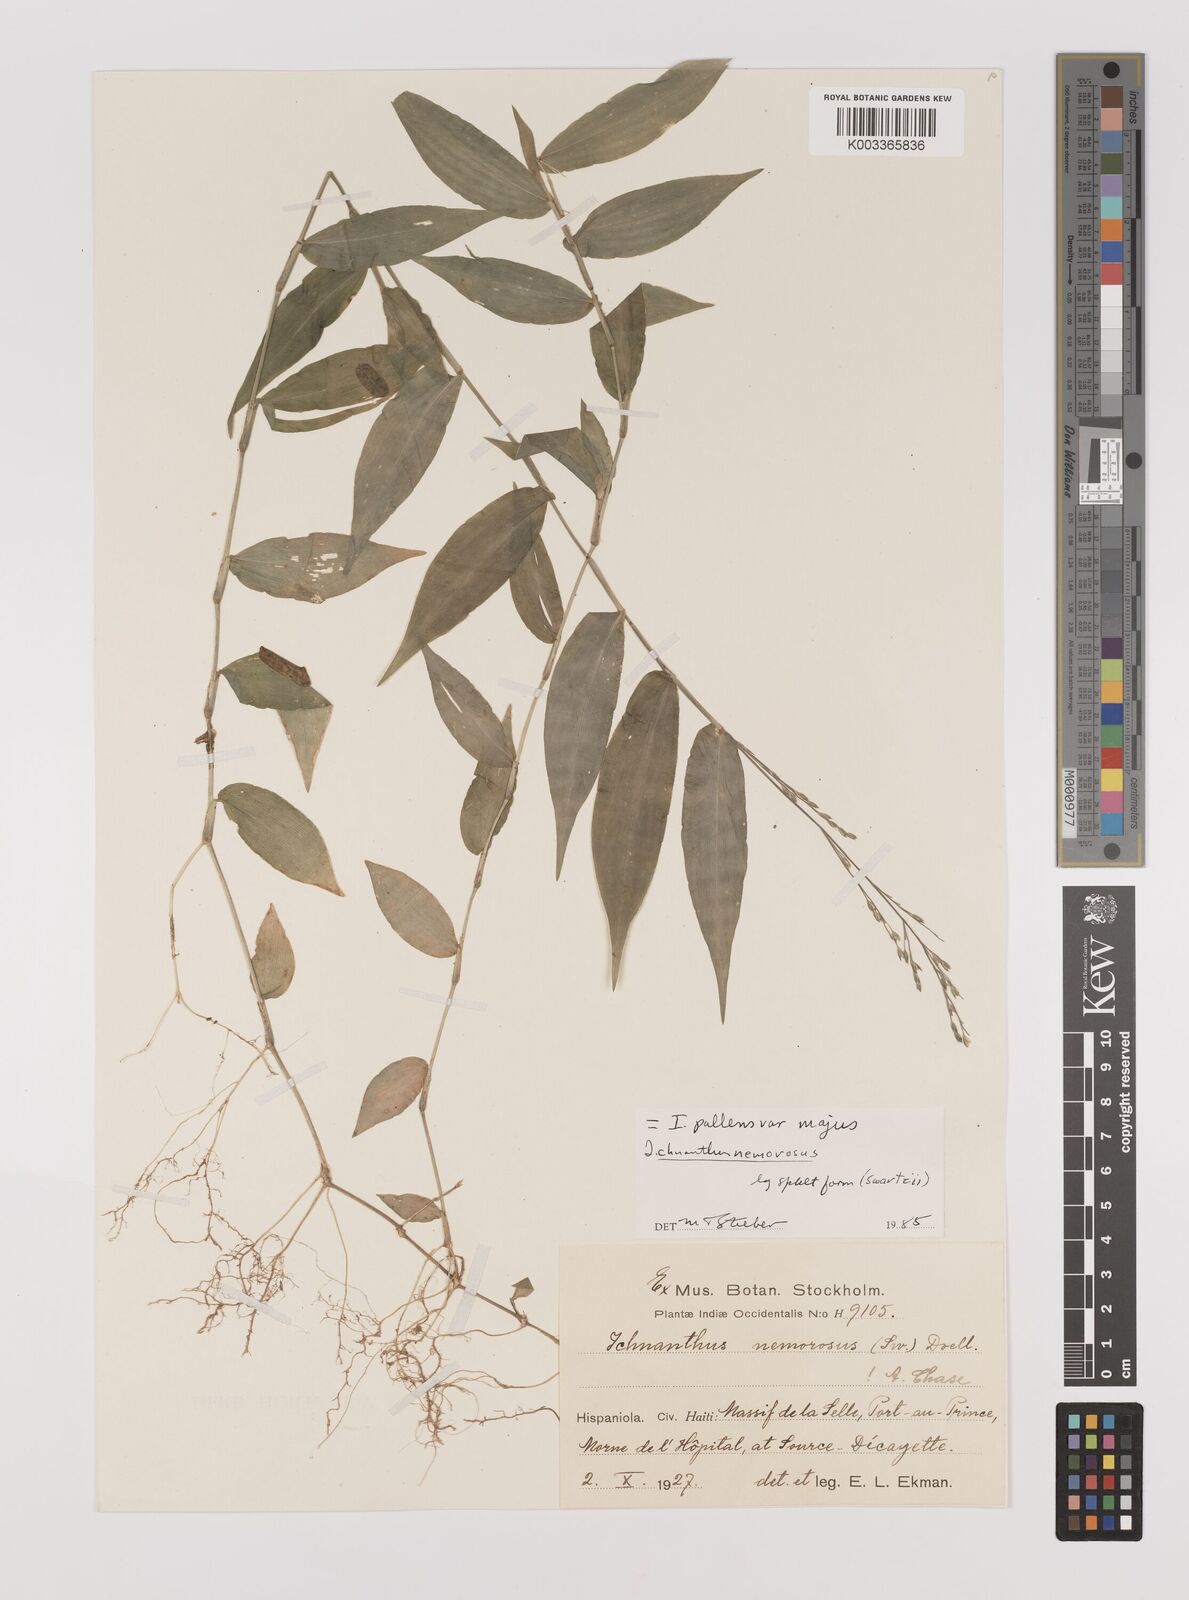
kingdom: Plantae
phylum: Tracheophyta
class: Liliopsida
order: Poales
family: Poaceae
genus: Ichnanthus
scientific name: Ichnanthus pallens
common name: Water grass
